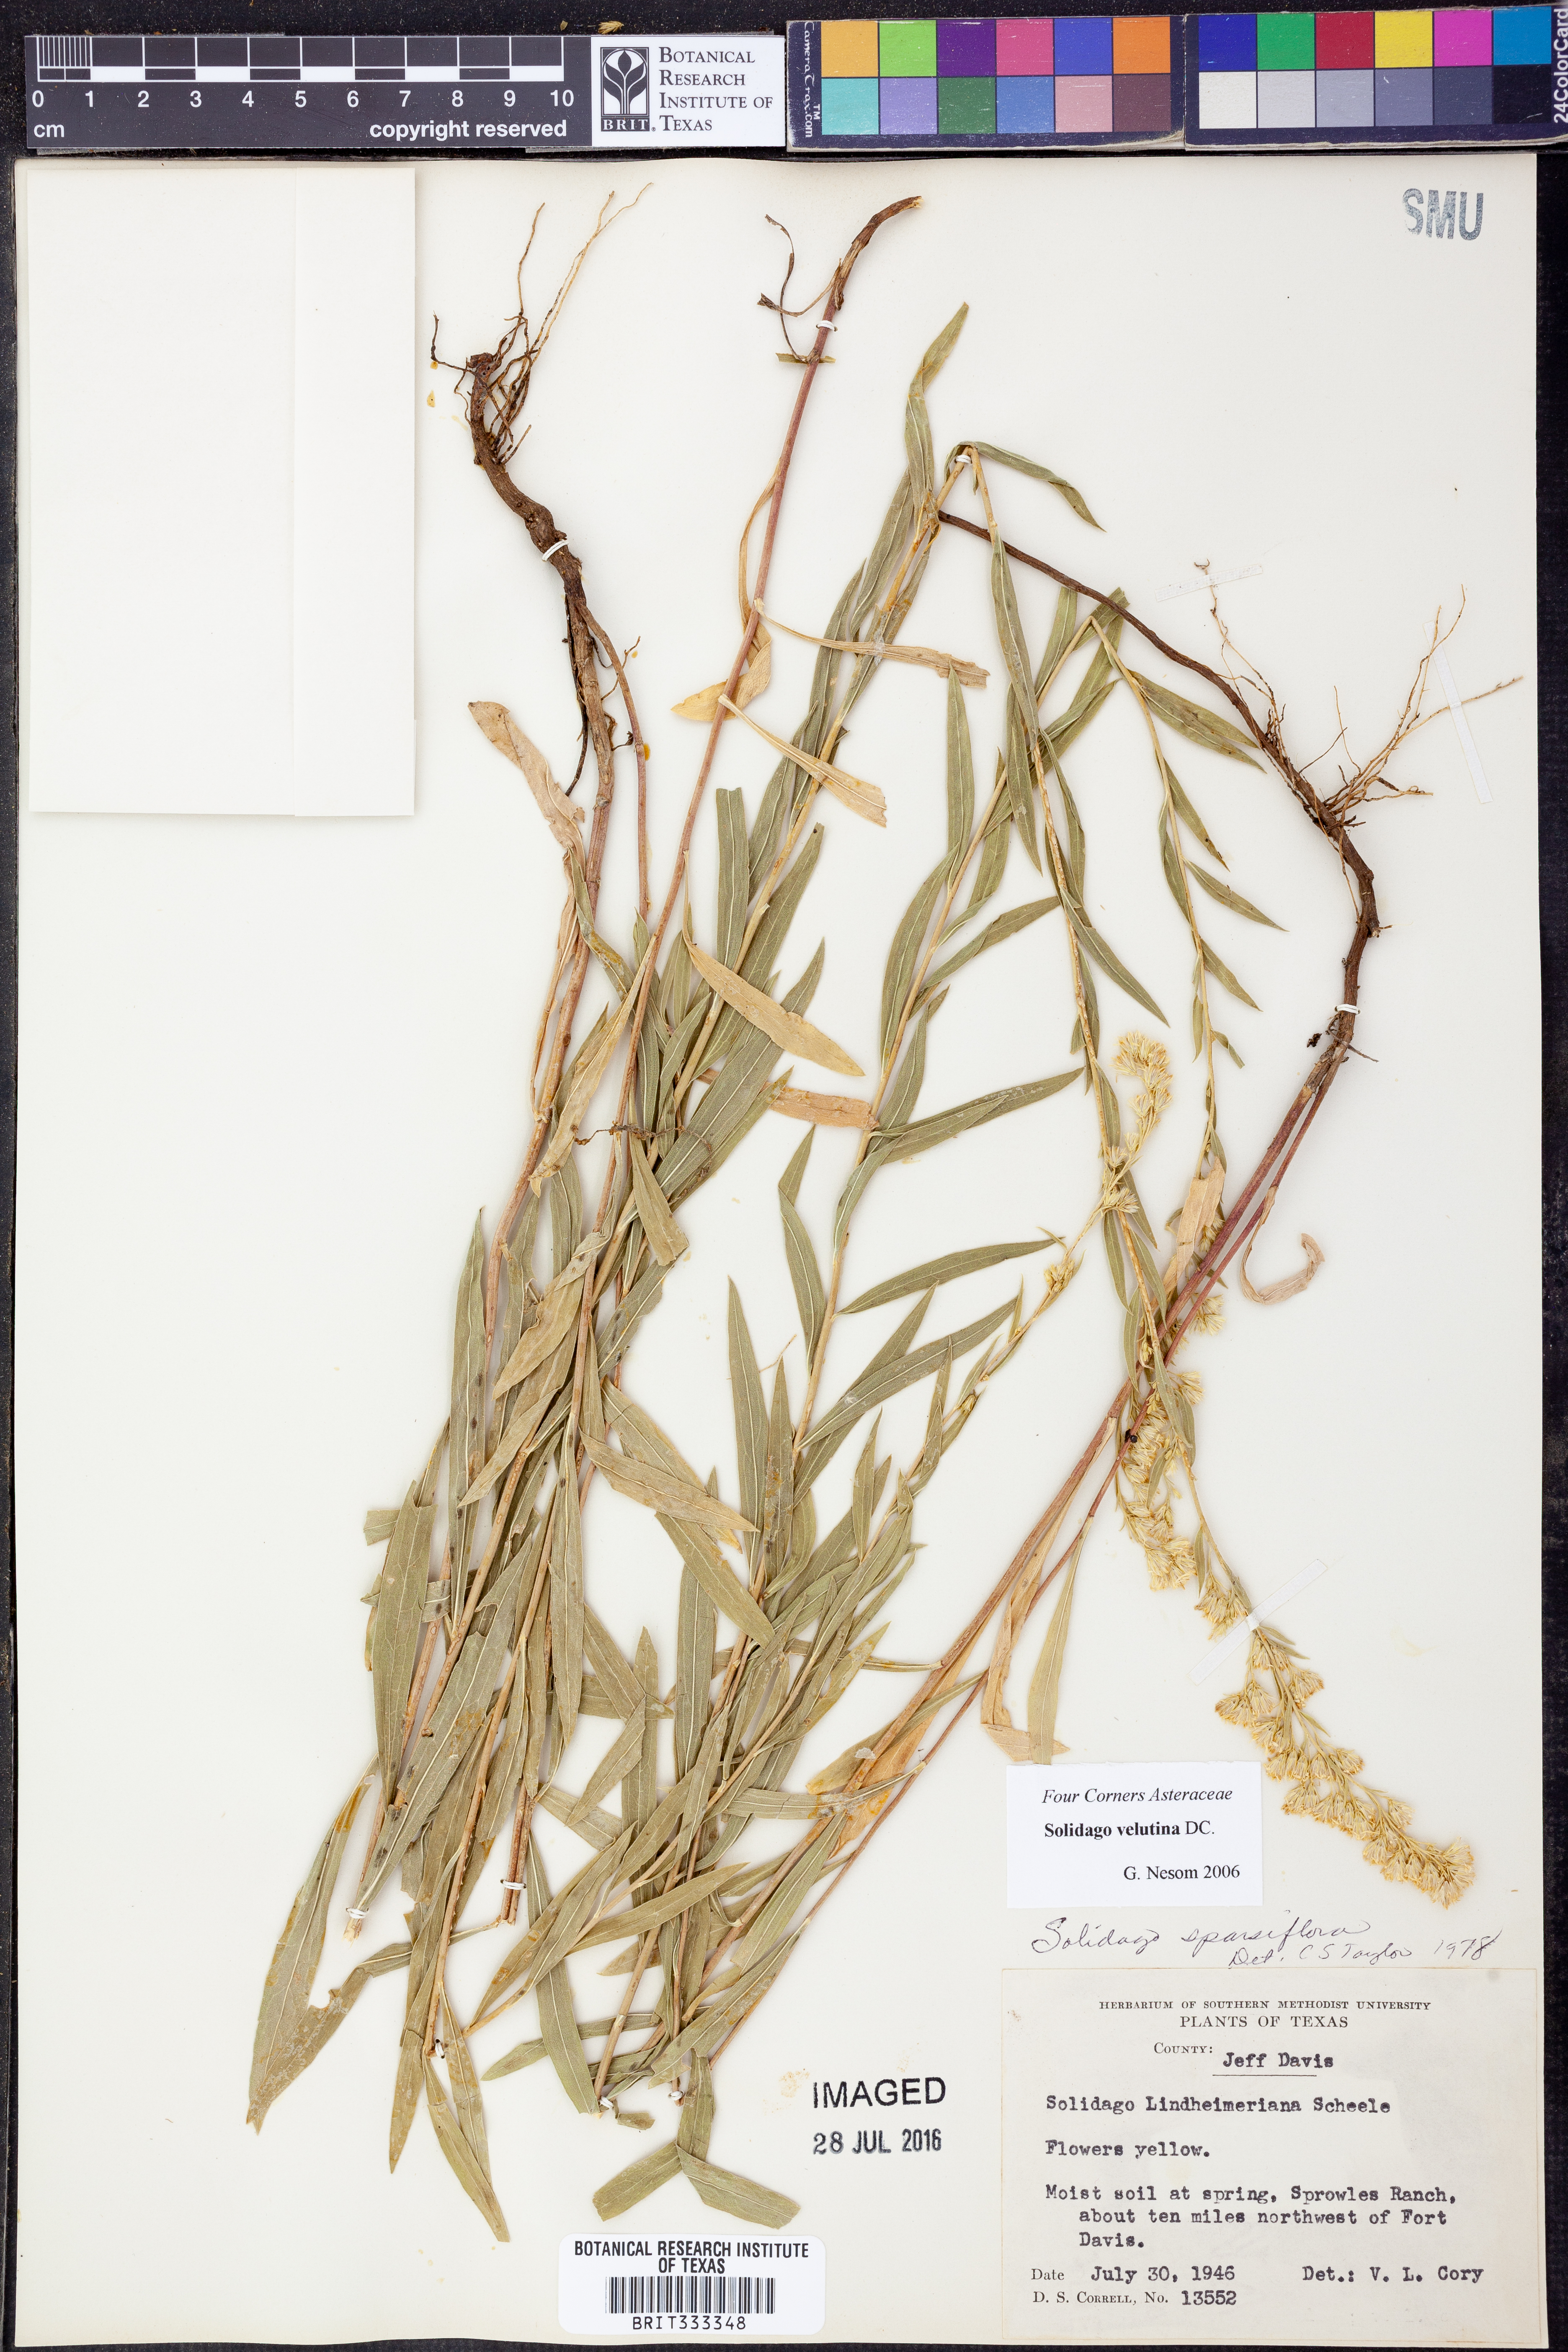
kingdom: Plantae
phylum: Tracheophyta
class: Magnoliopsida
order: Asterales
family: Asteraceae
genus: Solidago
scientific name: Solidago velutina
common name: Three-nerve goldenrod
